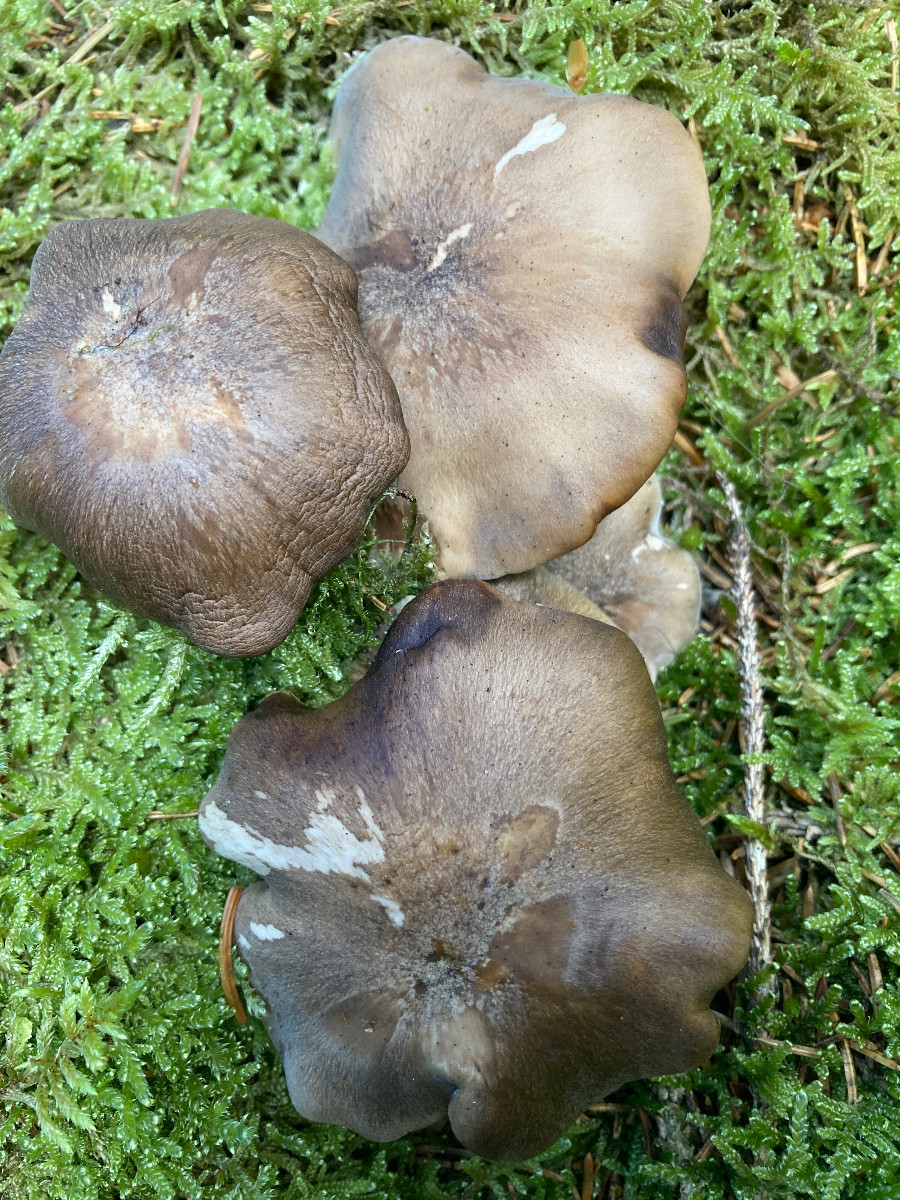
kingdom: Fungi
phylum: Basidiomycota
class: Agaricomycetes
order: Agaricales
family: Lyophyllaceae
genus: Lyophyllum
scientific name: Lyophyllum
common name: gråblad
